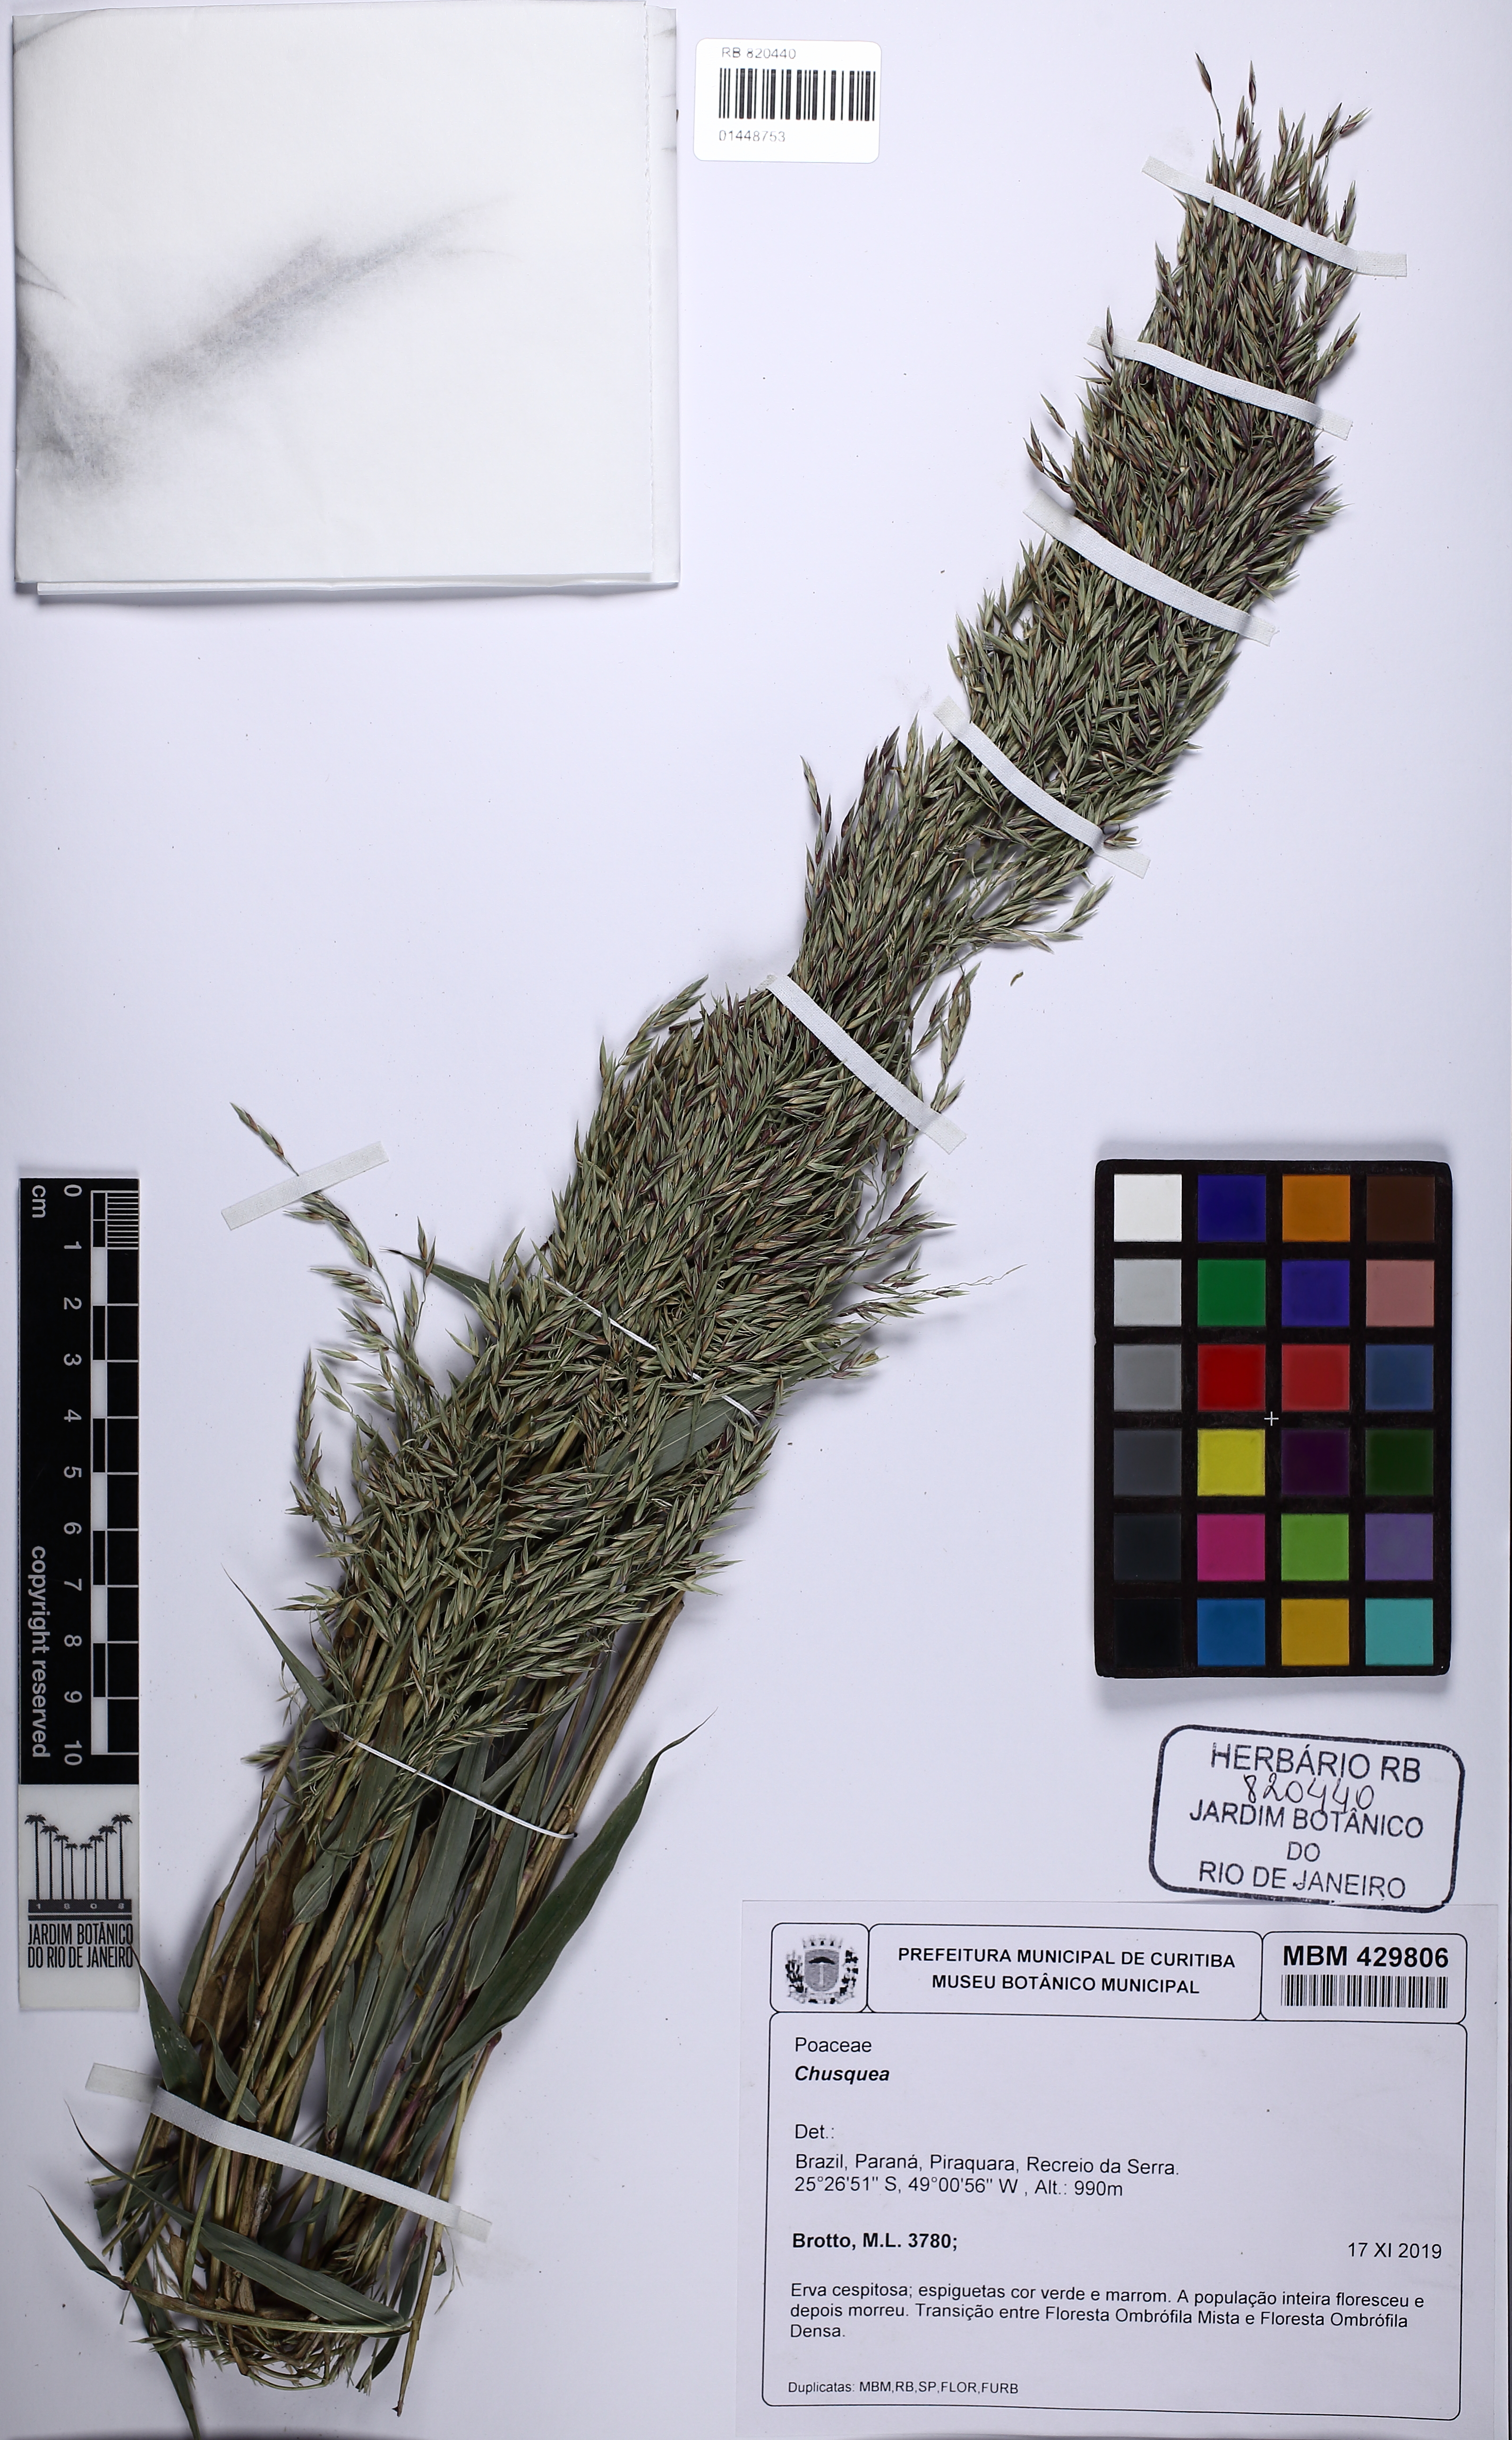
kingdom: Plantae
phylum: Tracheophyta
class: Liliopsida
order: Poales
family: Poaceae
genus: Chusquea
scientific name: Chusquea
